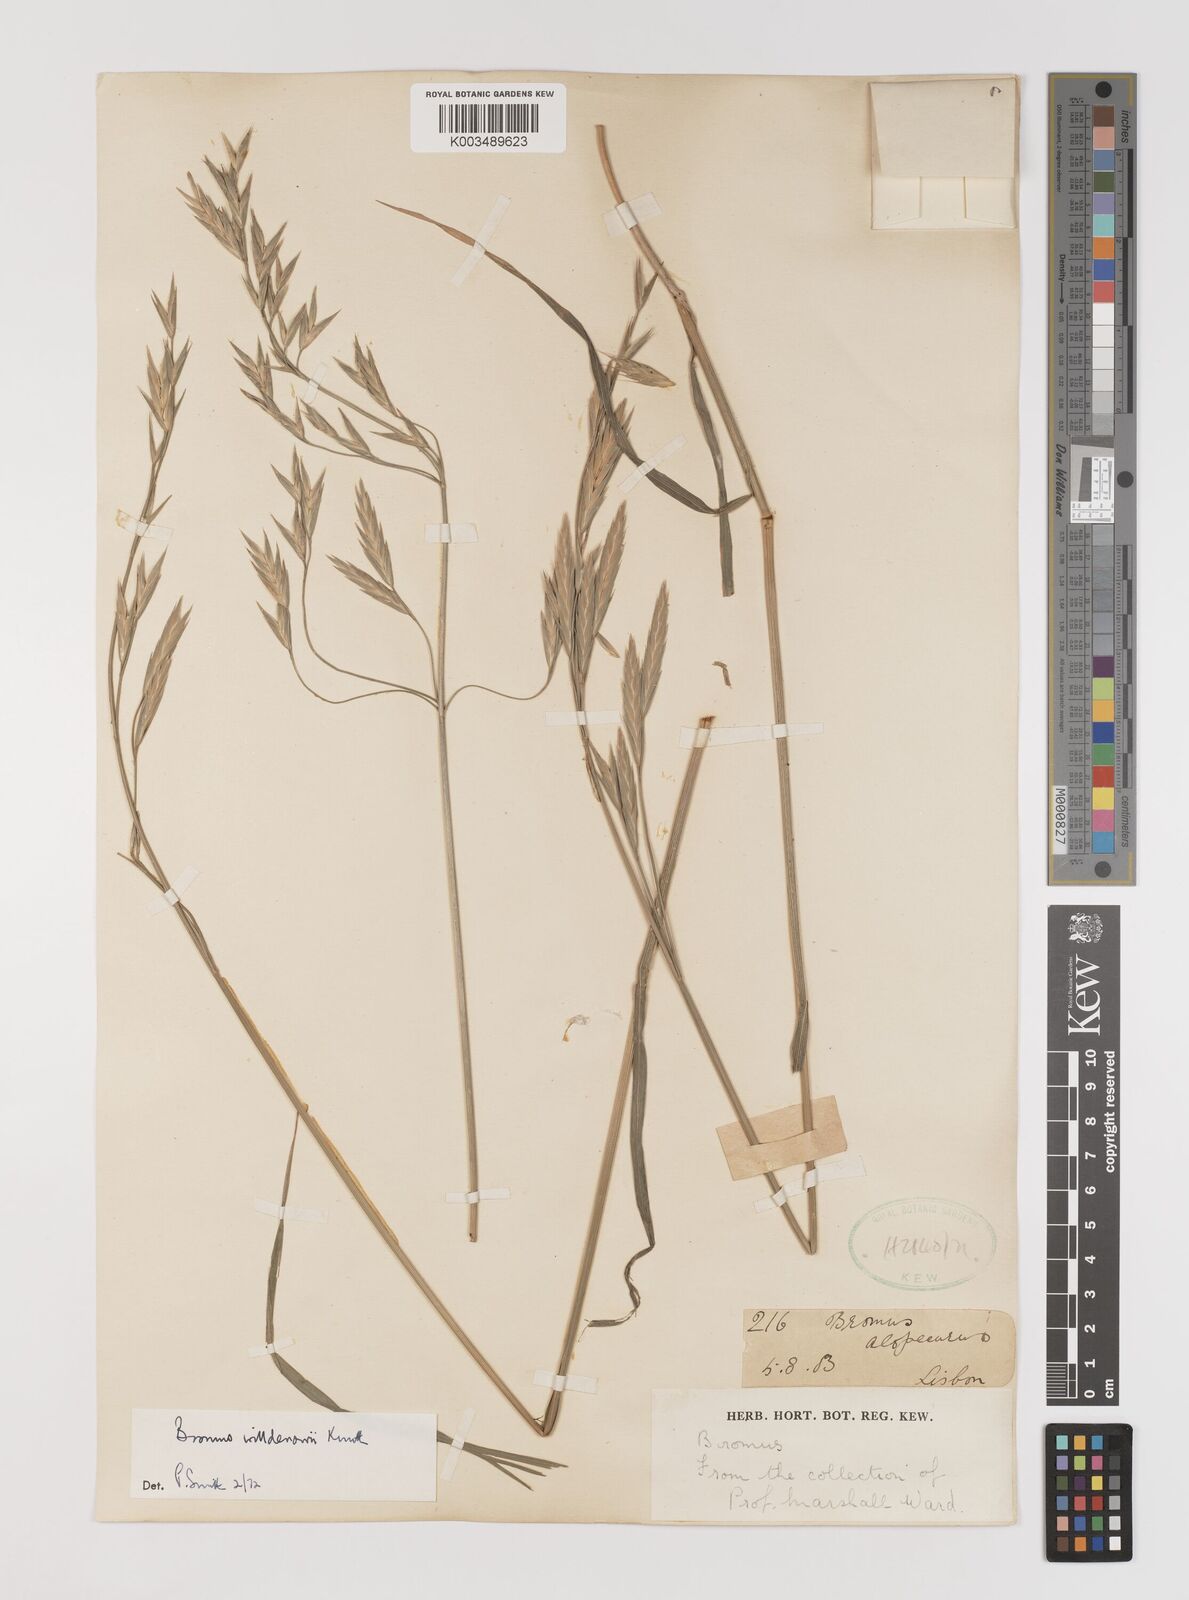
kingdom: Plantae
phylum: Tracheophyta
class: Liliopsida
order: Poales
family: Poaceae
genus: Bromus
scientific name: Bromus catharticus
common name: Rescuegrass
